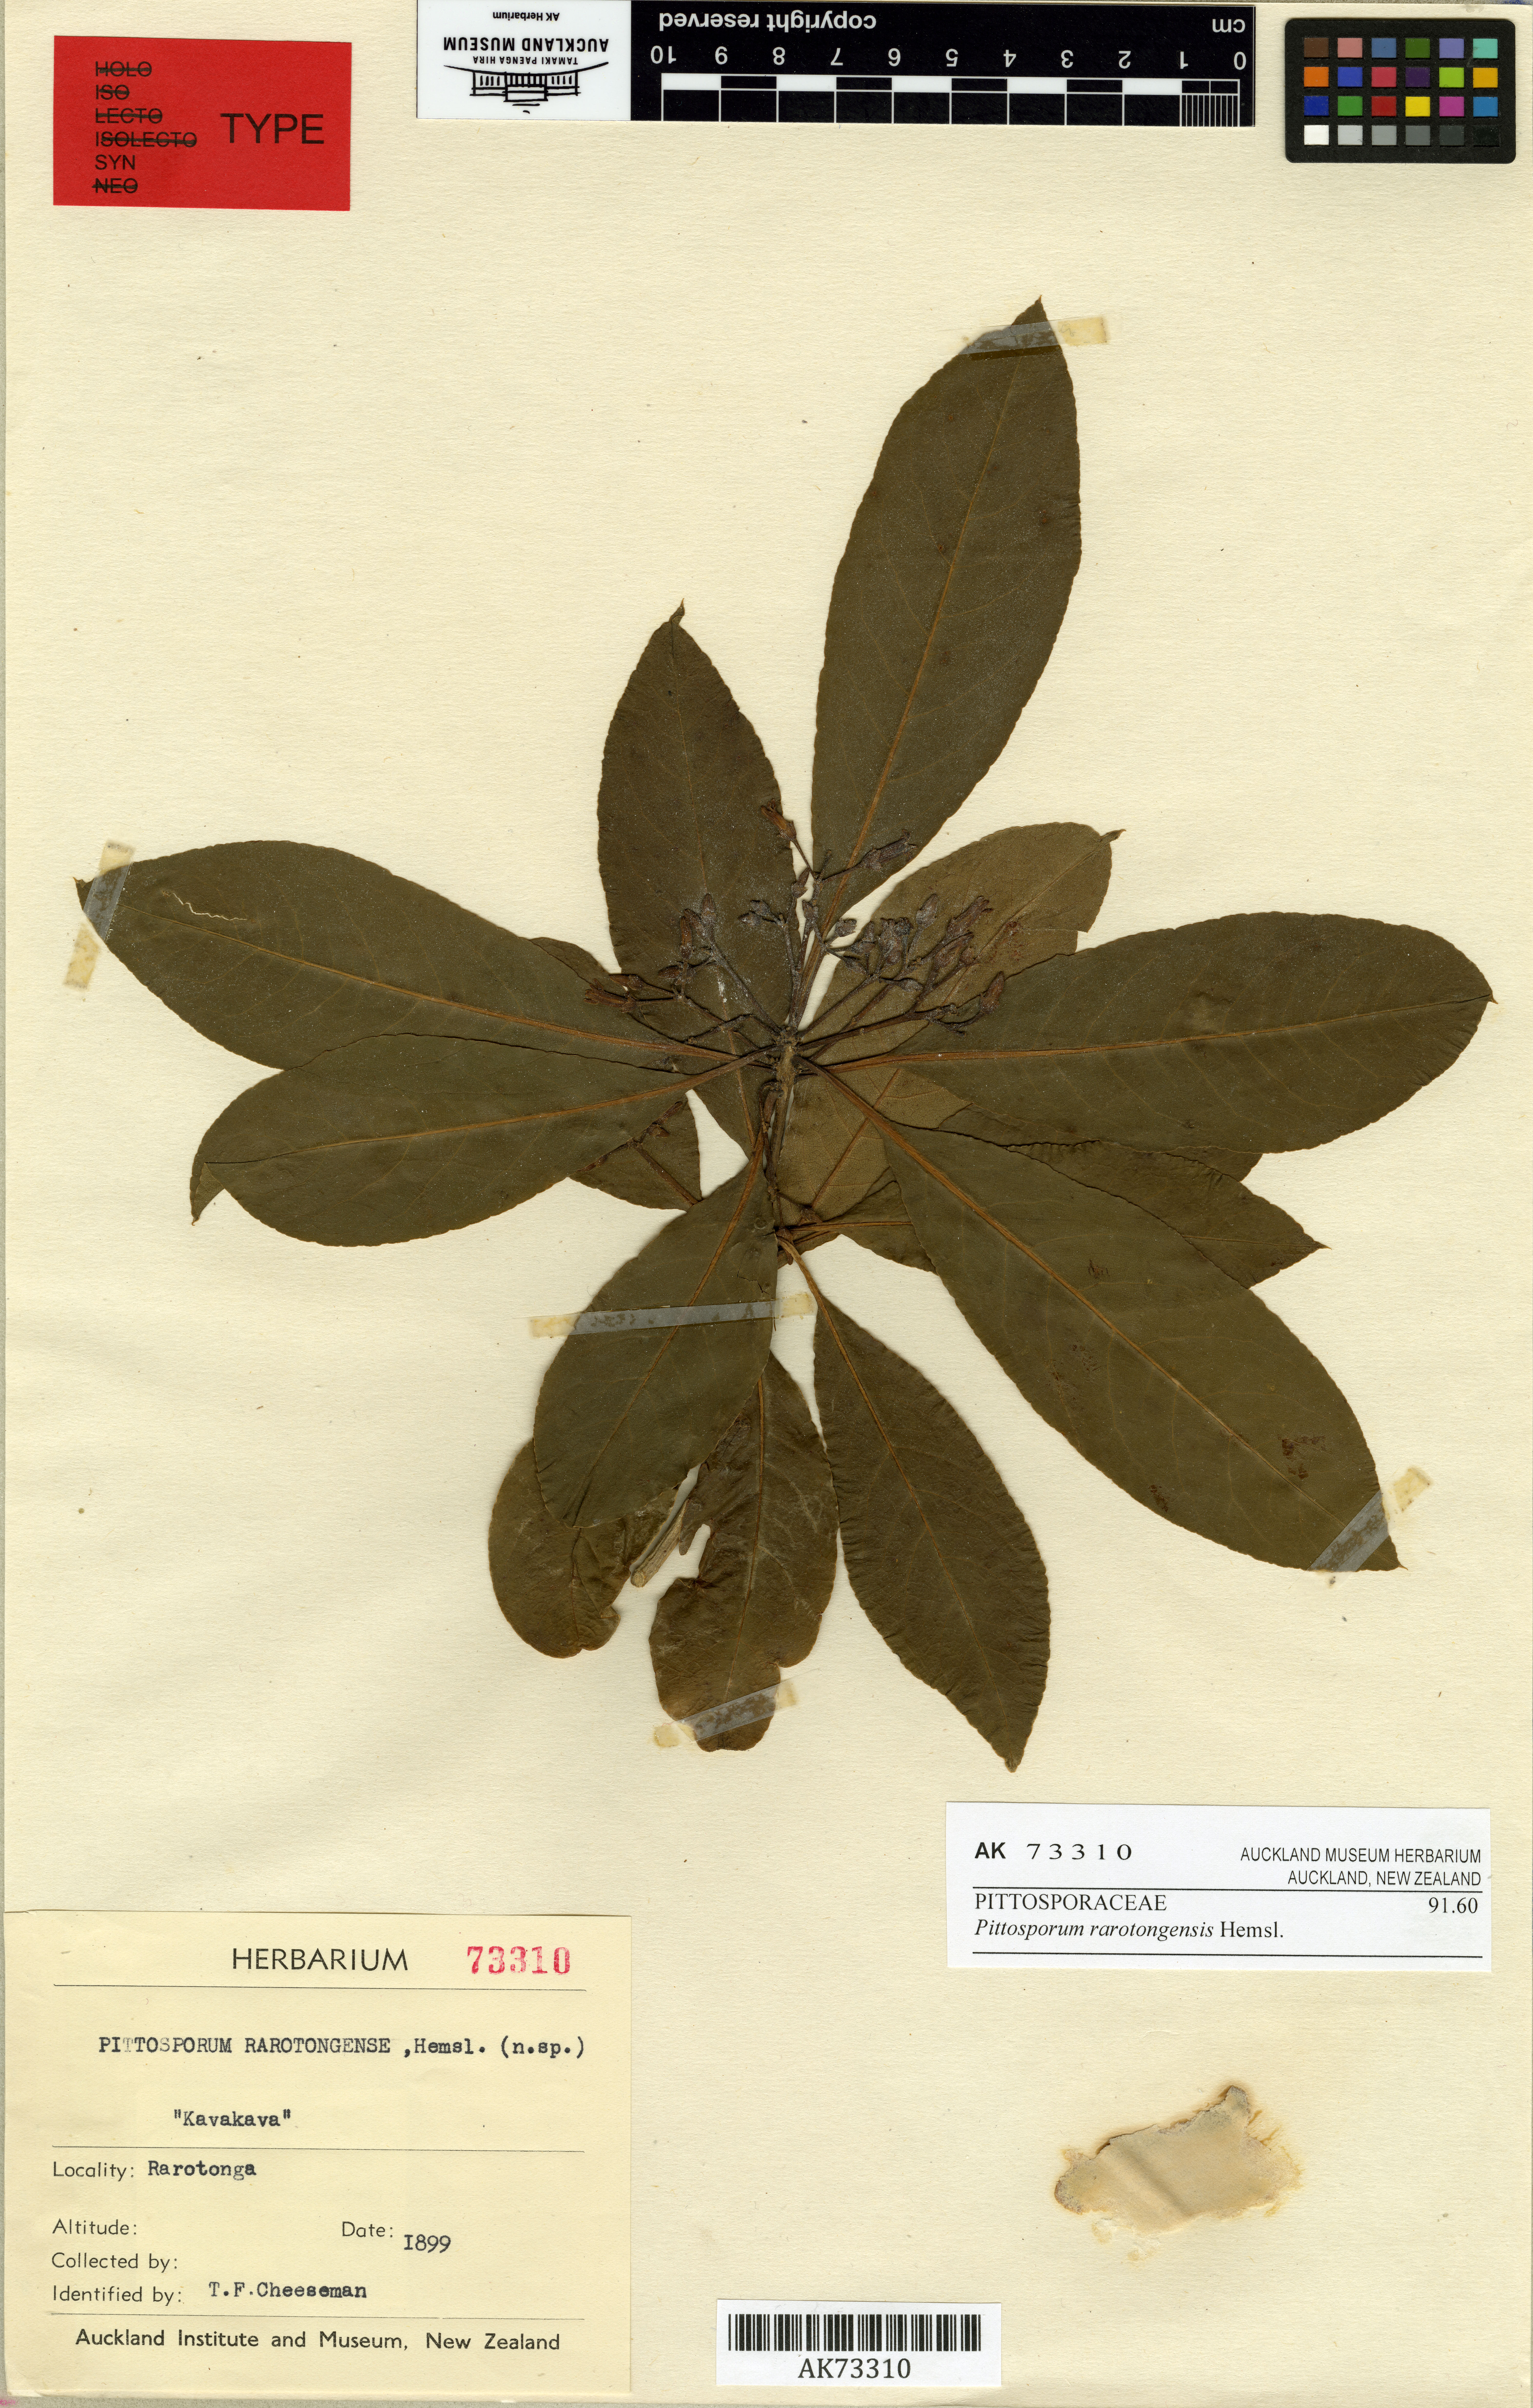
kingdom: Plantae
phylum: Tracheophyta
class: Magnoliopsida
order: Apiales
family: Pittosporaceae
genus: Pittosporum
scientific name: Pittosporum rarotongense
